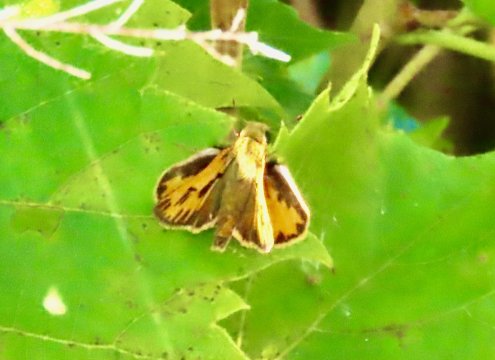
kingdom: Animalia
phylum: Arthropoda
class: Insecta
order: Lepidoptera
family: Hesperiidae
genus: Hylephila
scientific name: Hylephila phyleus
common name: Fiery Skipper
